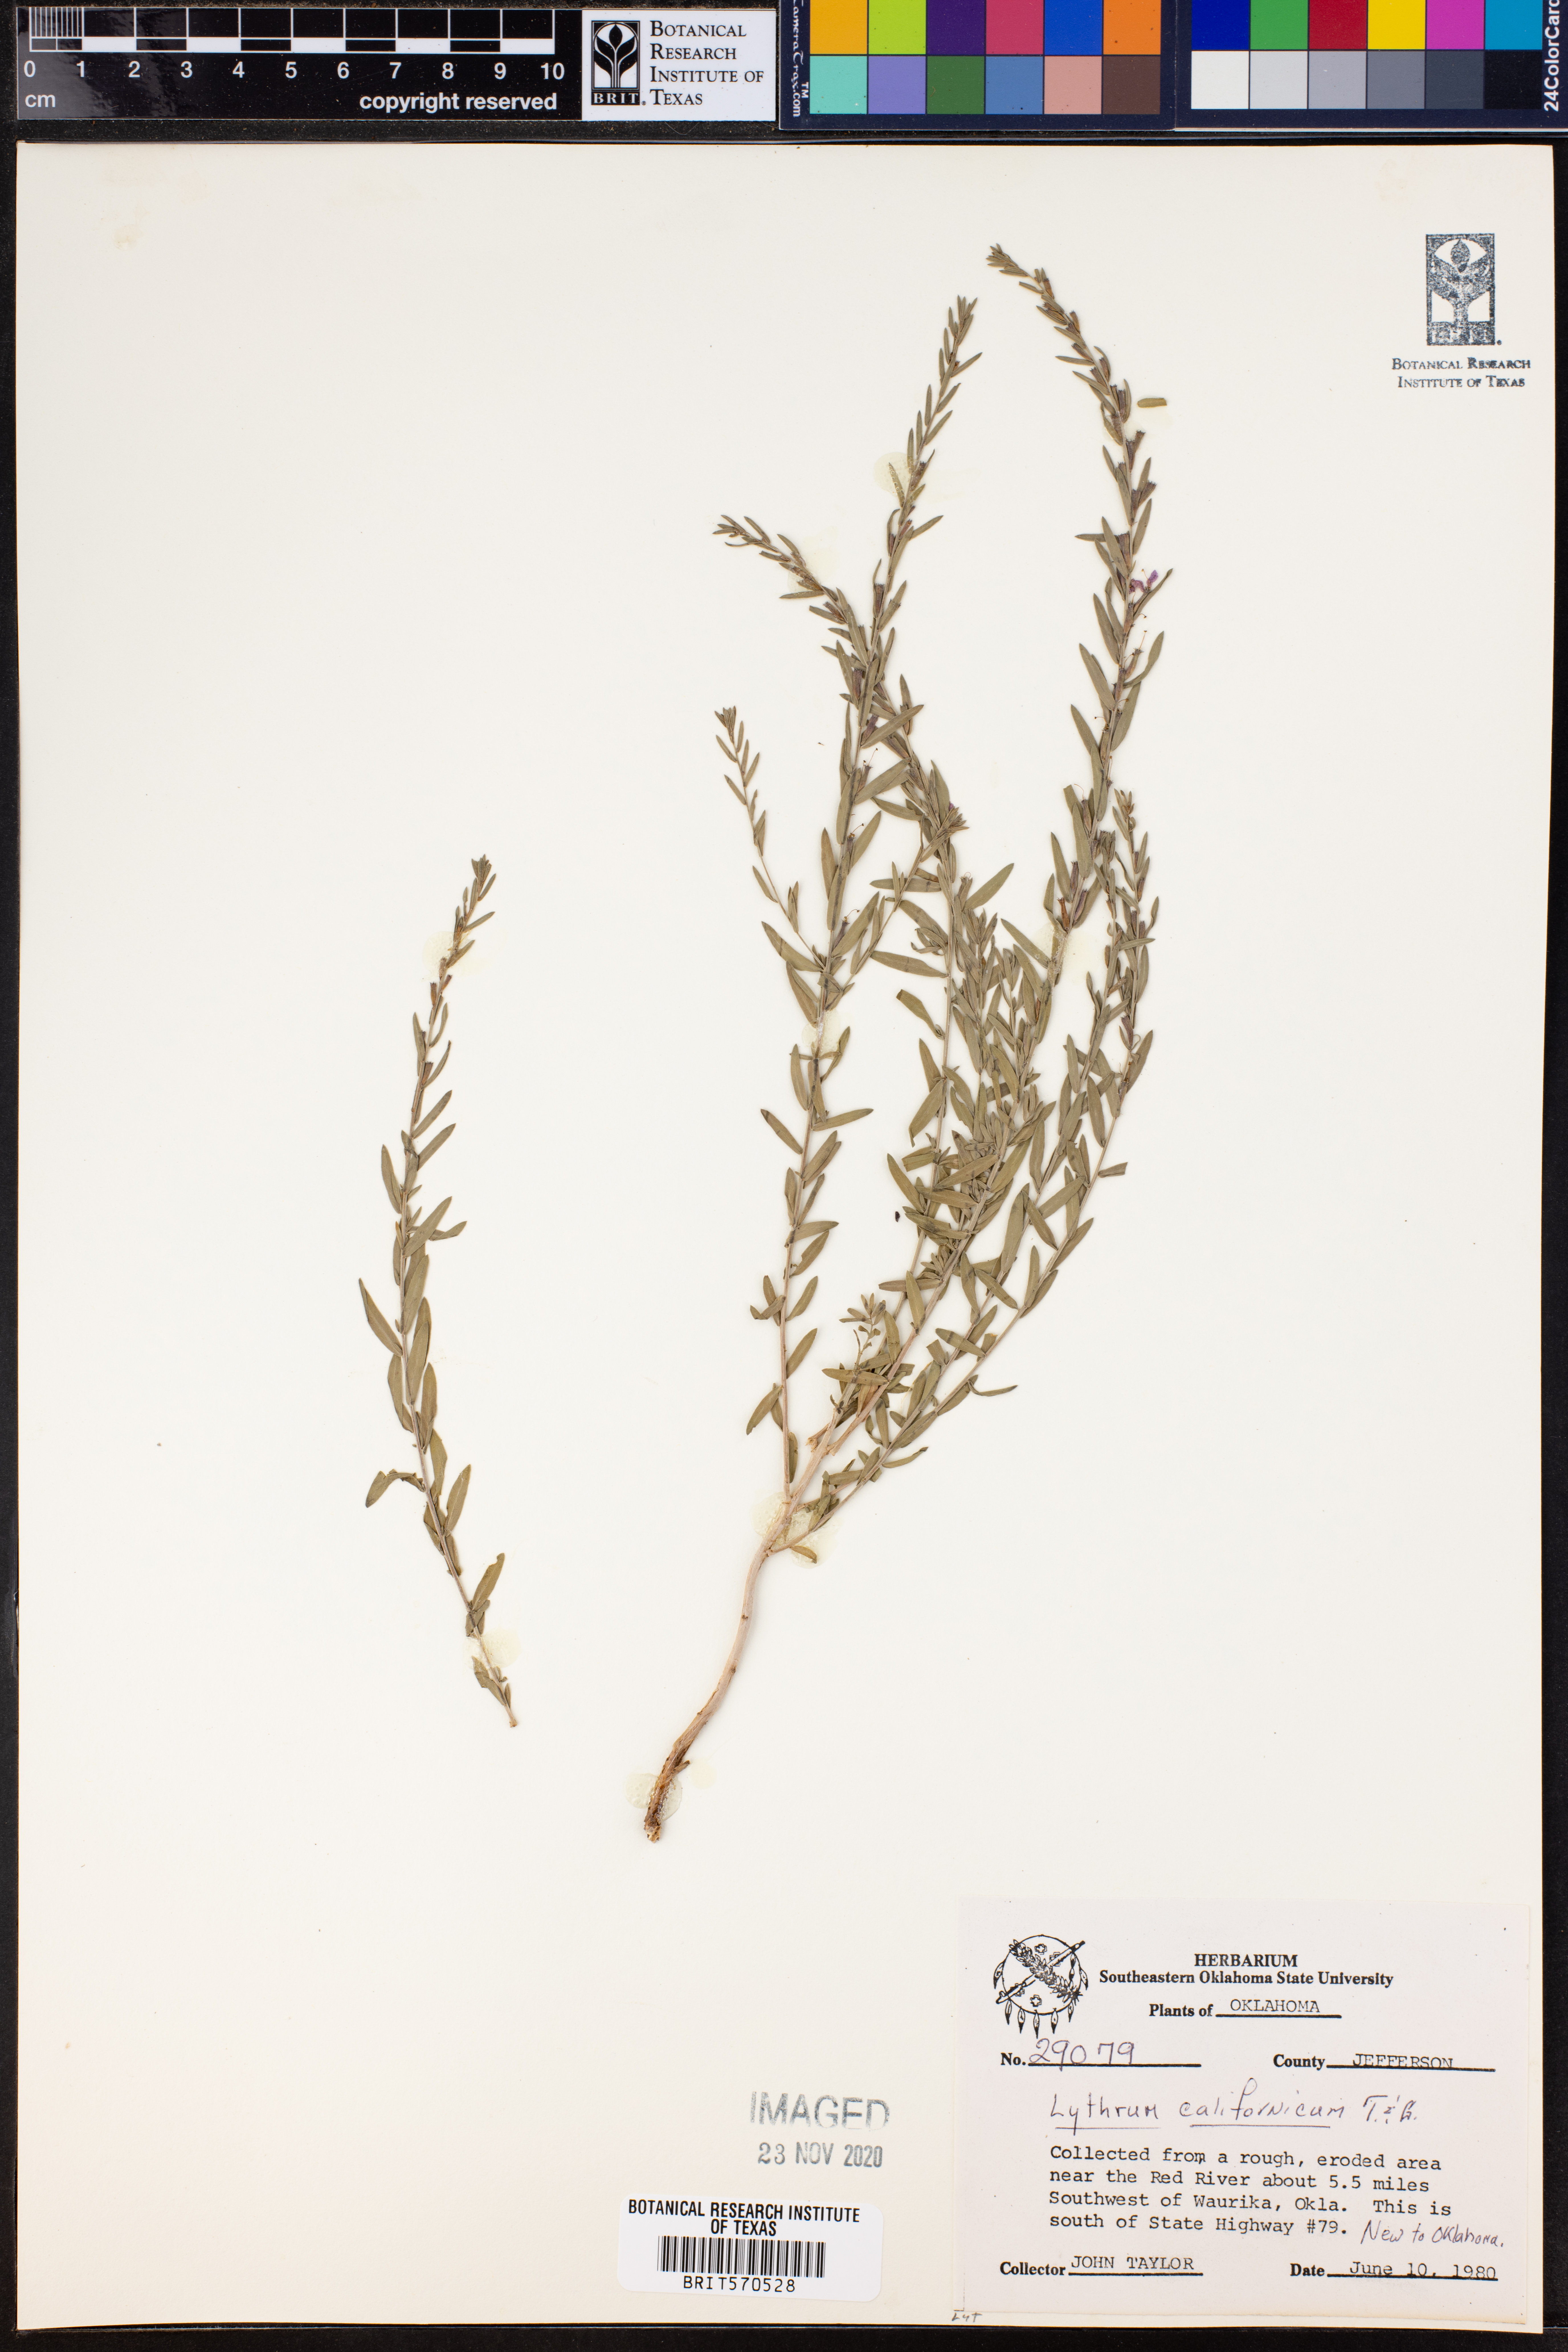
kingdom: Plantae
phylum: Tracheophyta
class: Magnoliopsida
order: Myrtales
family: Lythraceae
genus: Lythrum
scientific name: Lythrum californicum
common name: California loosestrife
